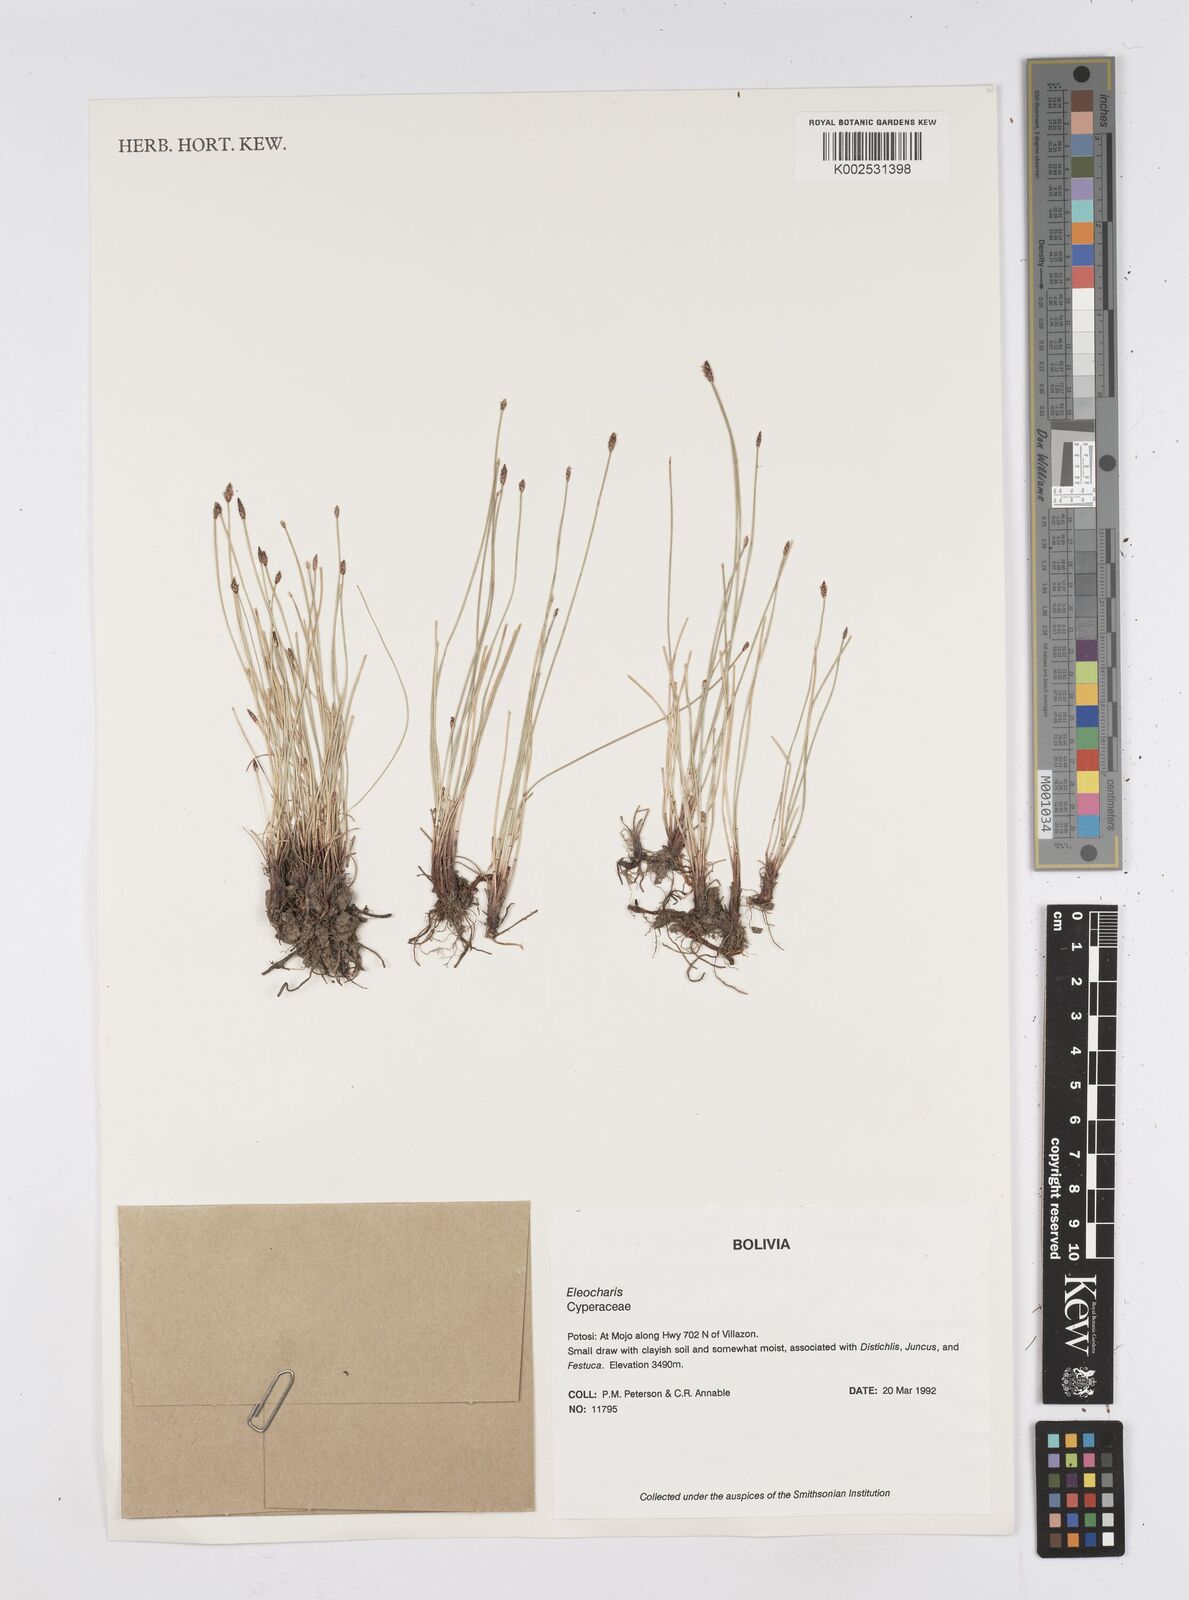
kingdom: Plantae
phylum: Tracheophyta
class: Liliopsida
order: Poales
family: Cyperaceae
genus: Eleocharis
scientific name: Eleocharis
